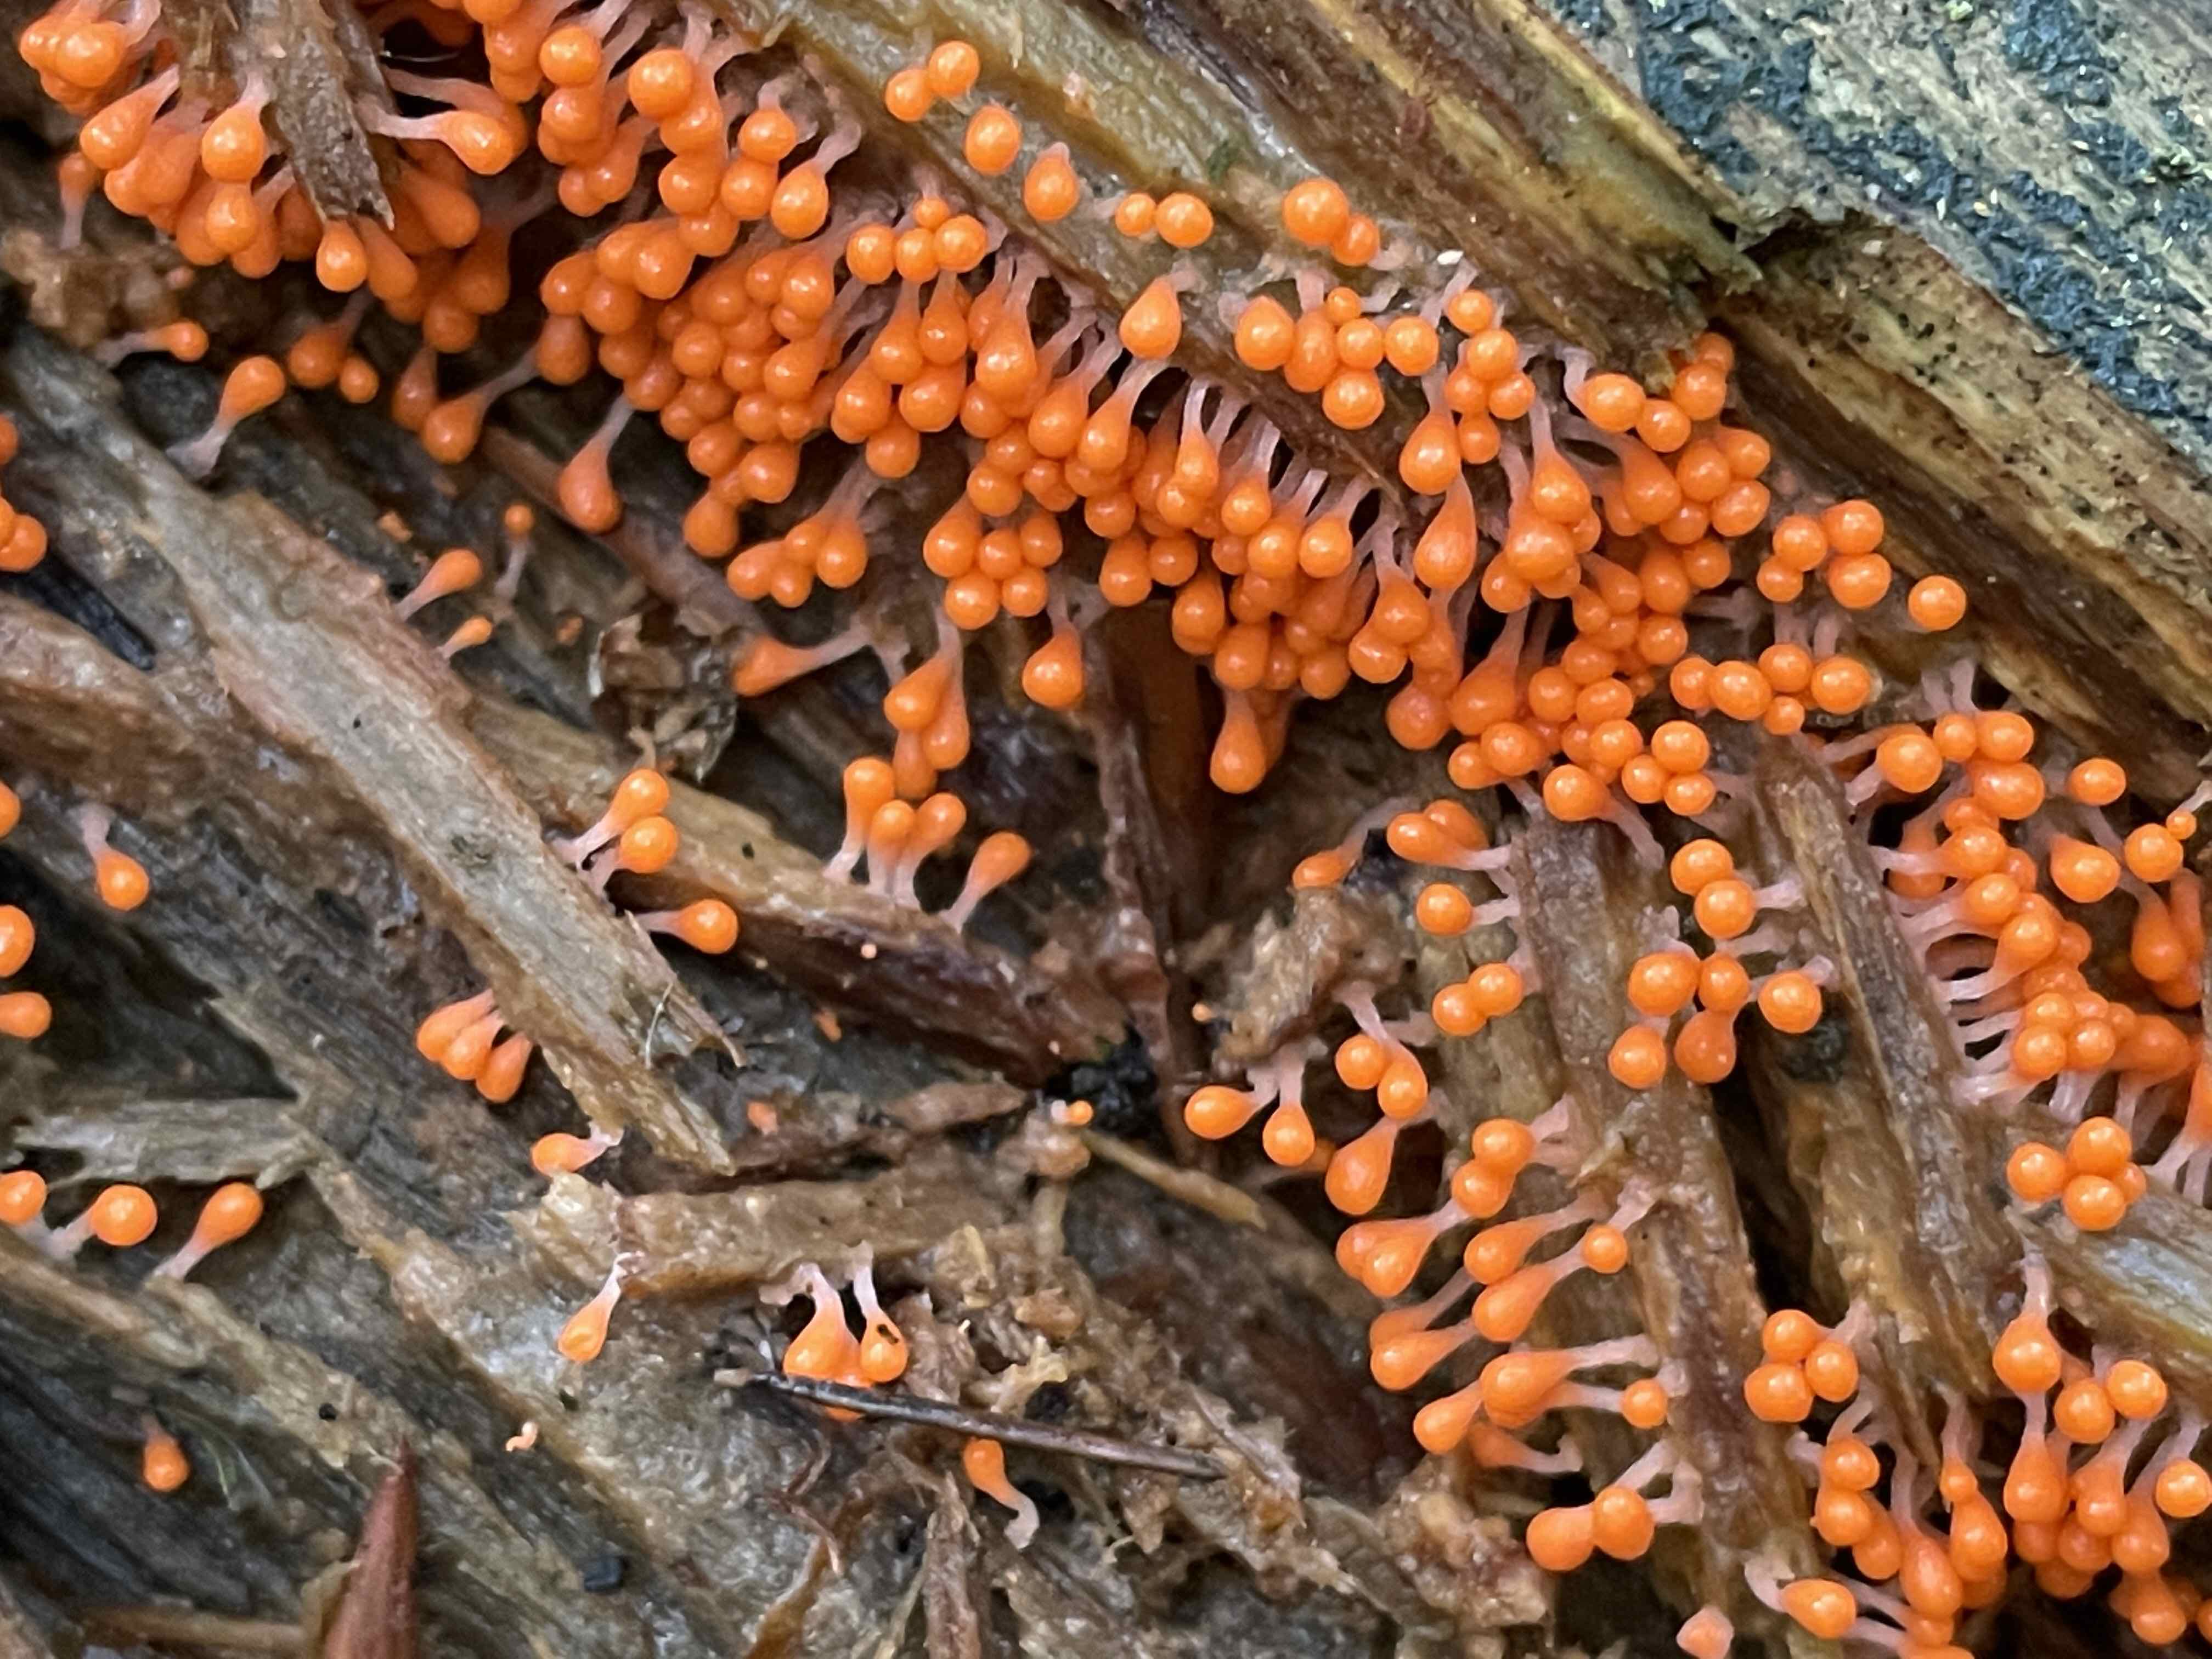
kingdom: Protozoa
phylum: Mycetozoa
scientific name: Mycetozoa
